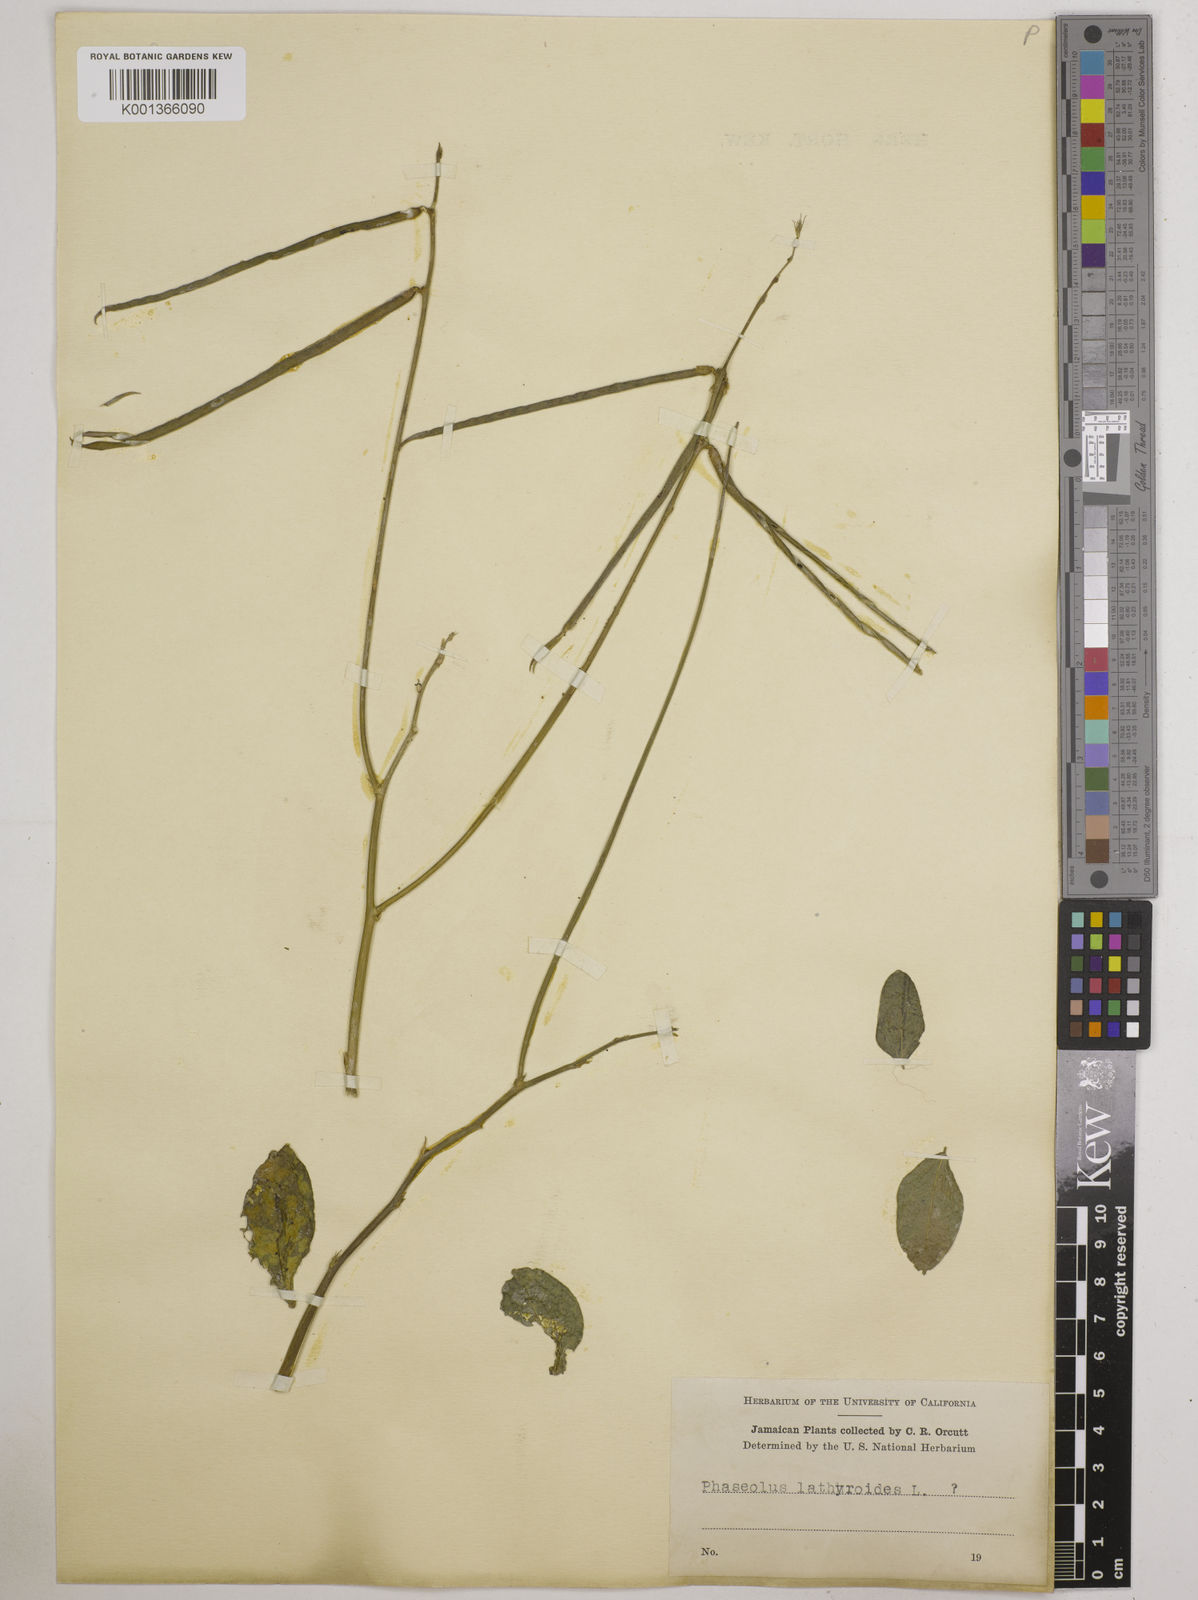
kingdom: Plantae
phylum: Tracheophyta
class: Magnoliopsida
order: Fabales
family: Fabaceae
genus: Macroptilium
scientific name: Macroptilium lathyroides
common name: Wild bushbean
